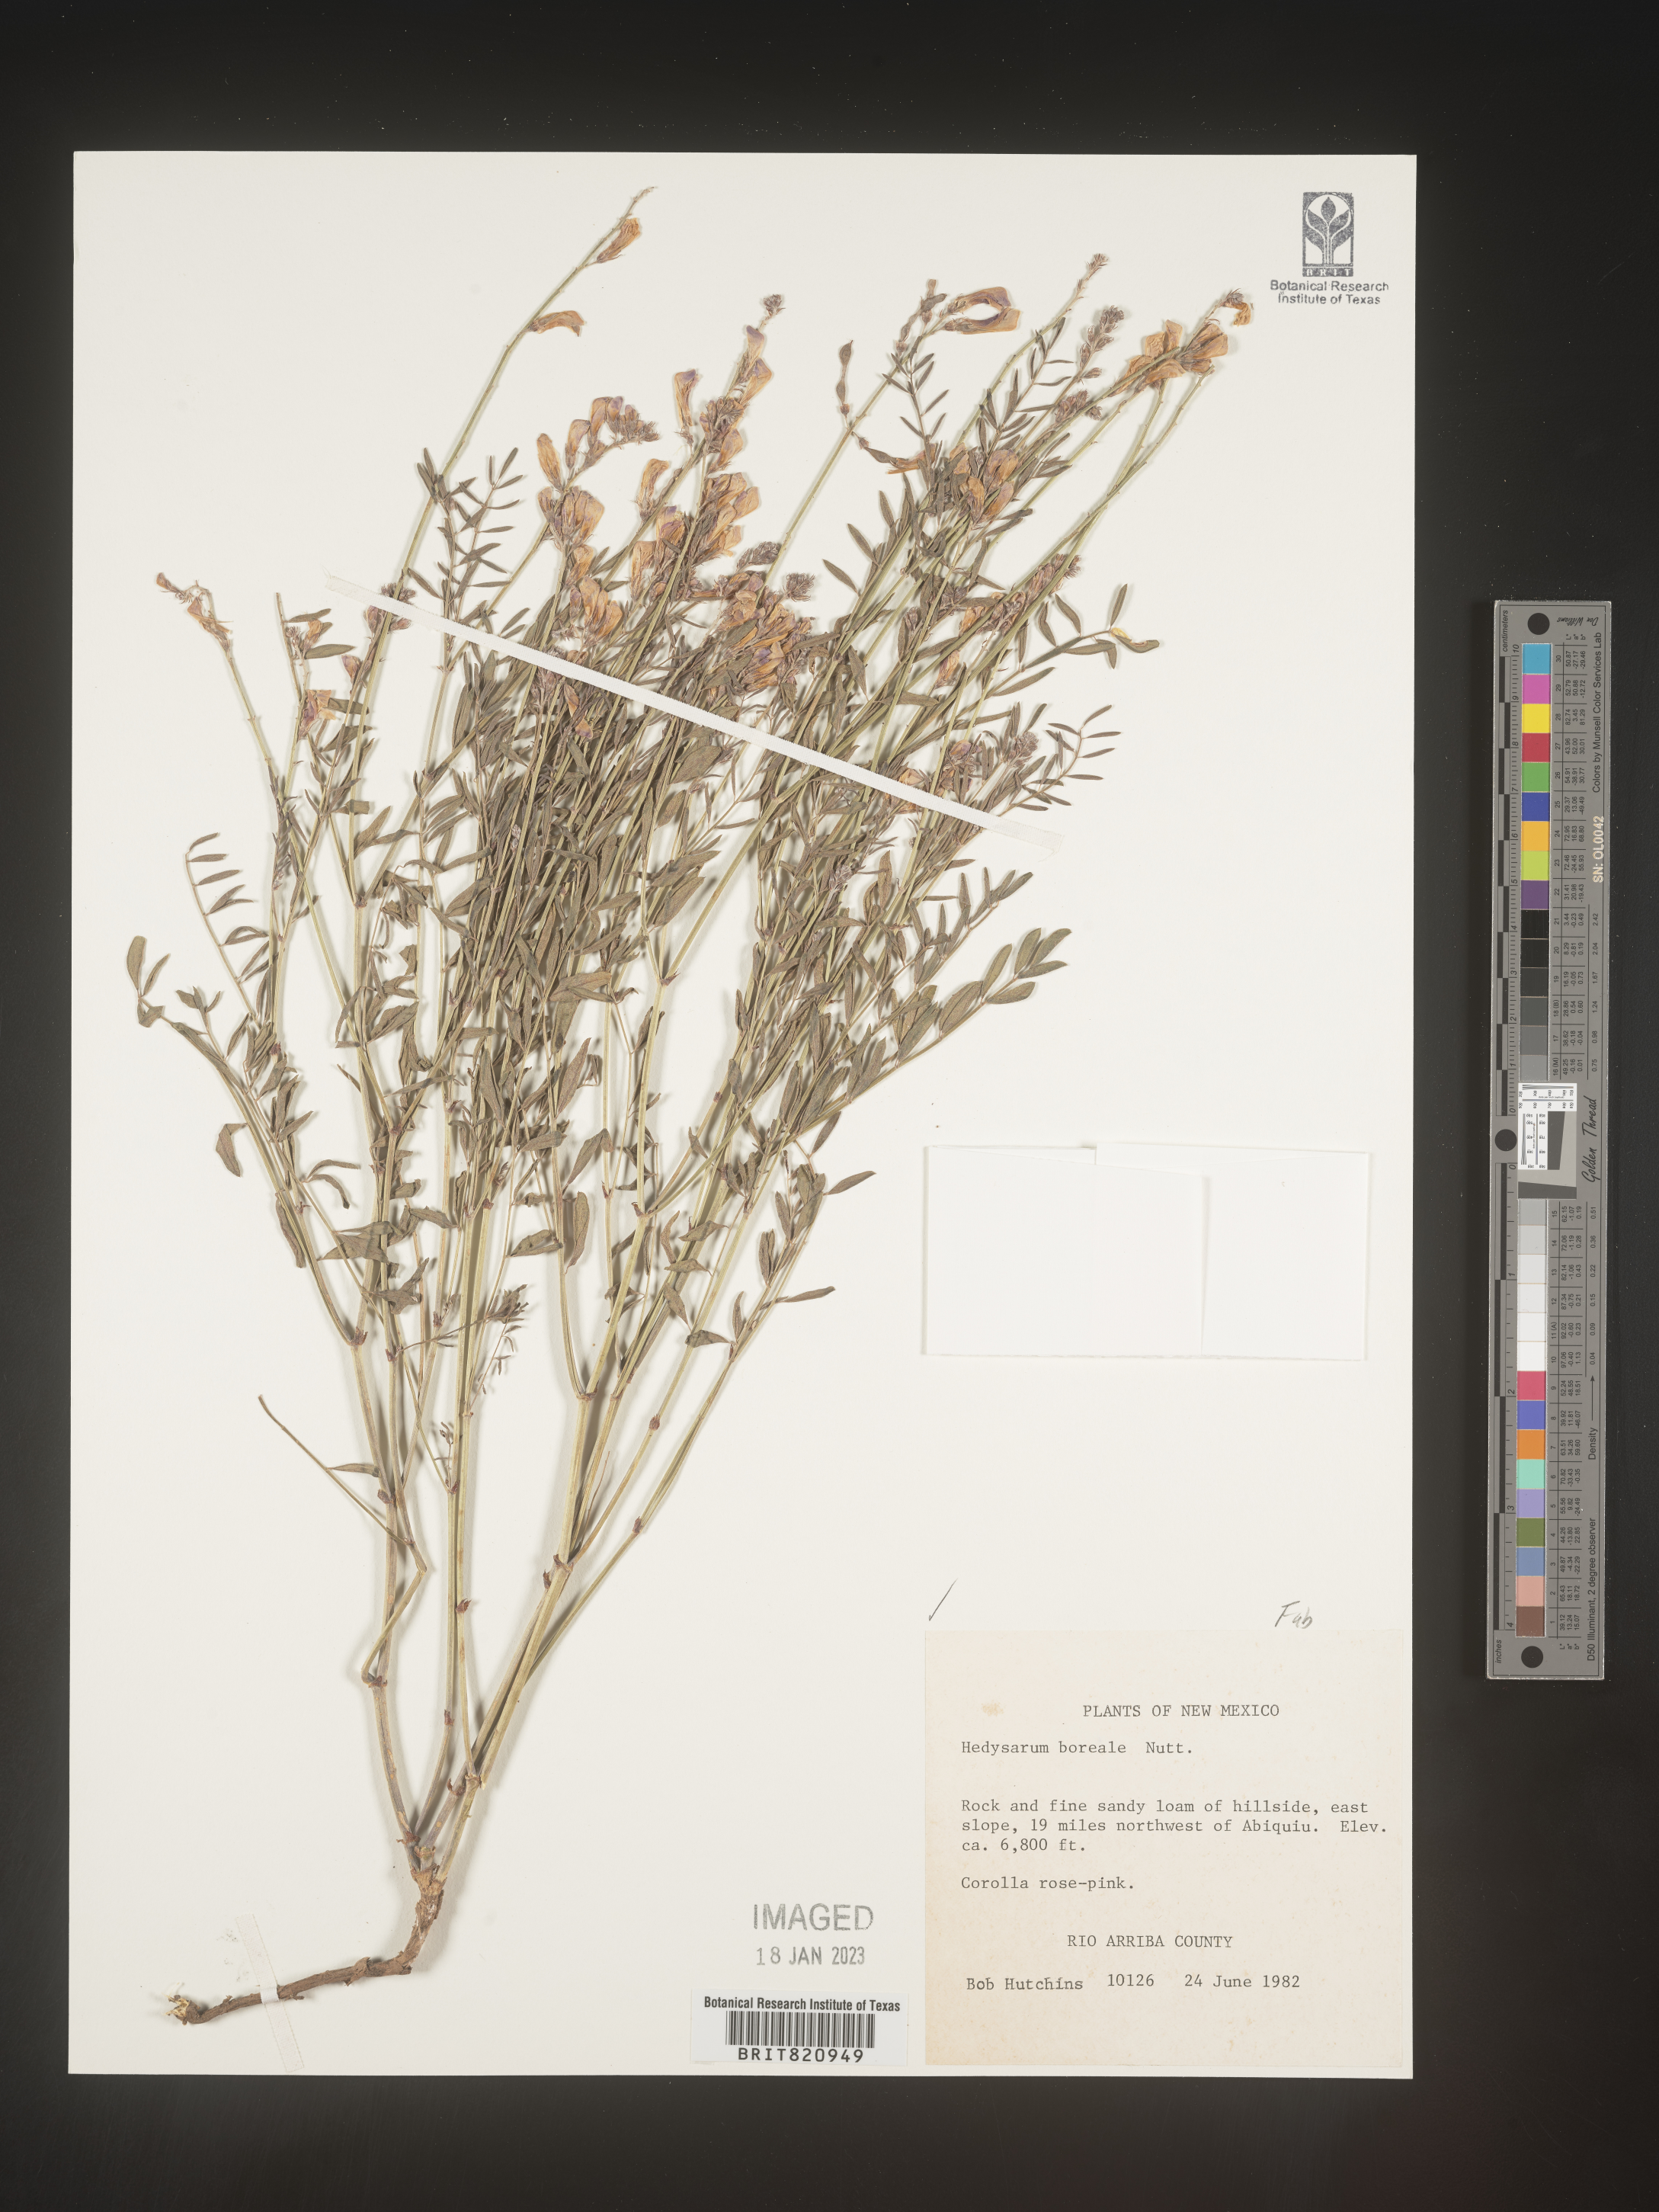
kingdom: Plantae
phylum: Tracheophyta
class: Magnoliopsida
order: Fabales
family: Fabaceae
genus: Hedysarum
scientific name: Hedysarum boreale
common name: Northern sweet-vetch
